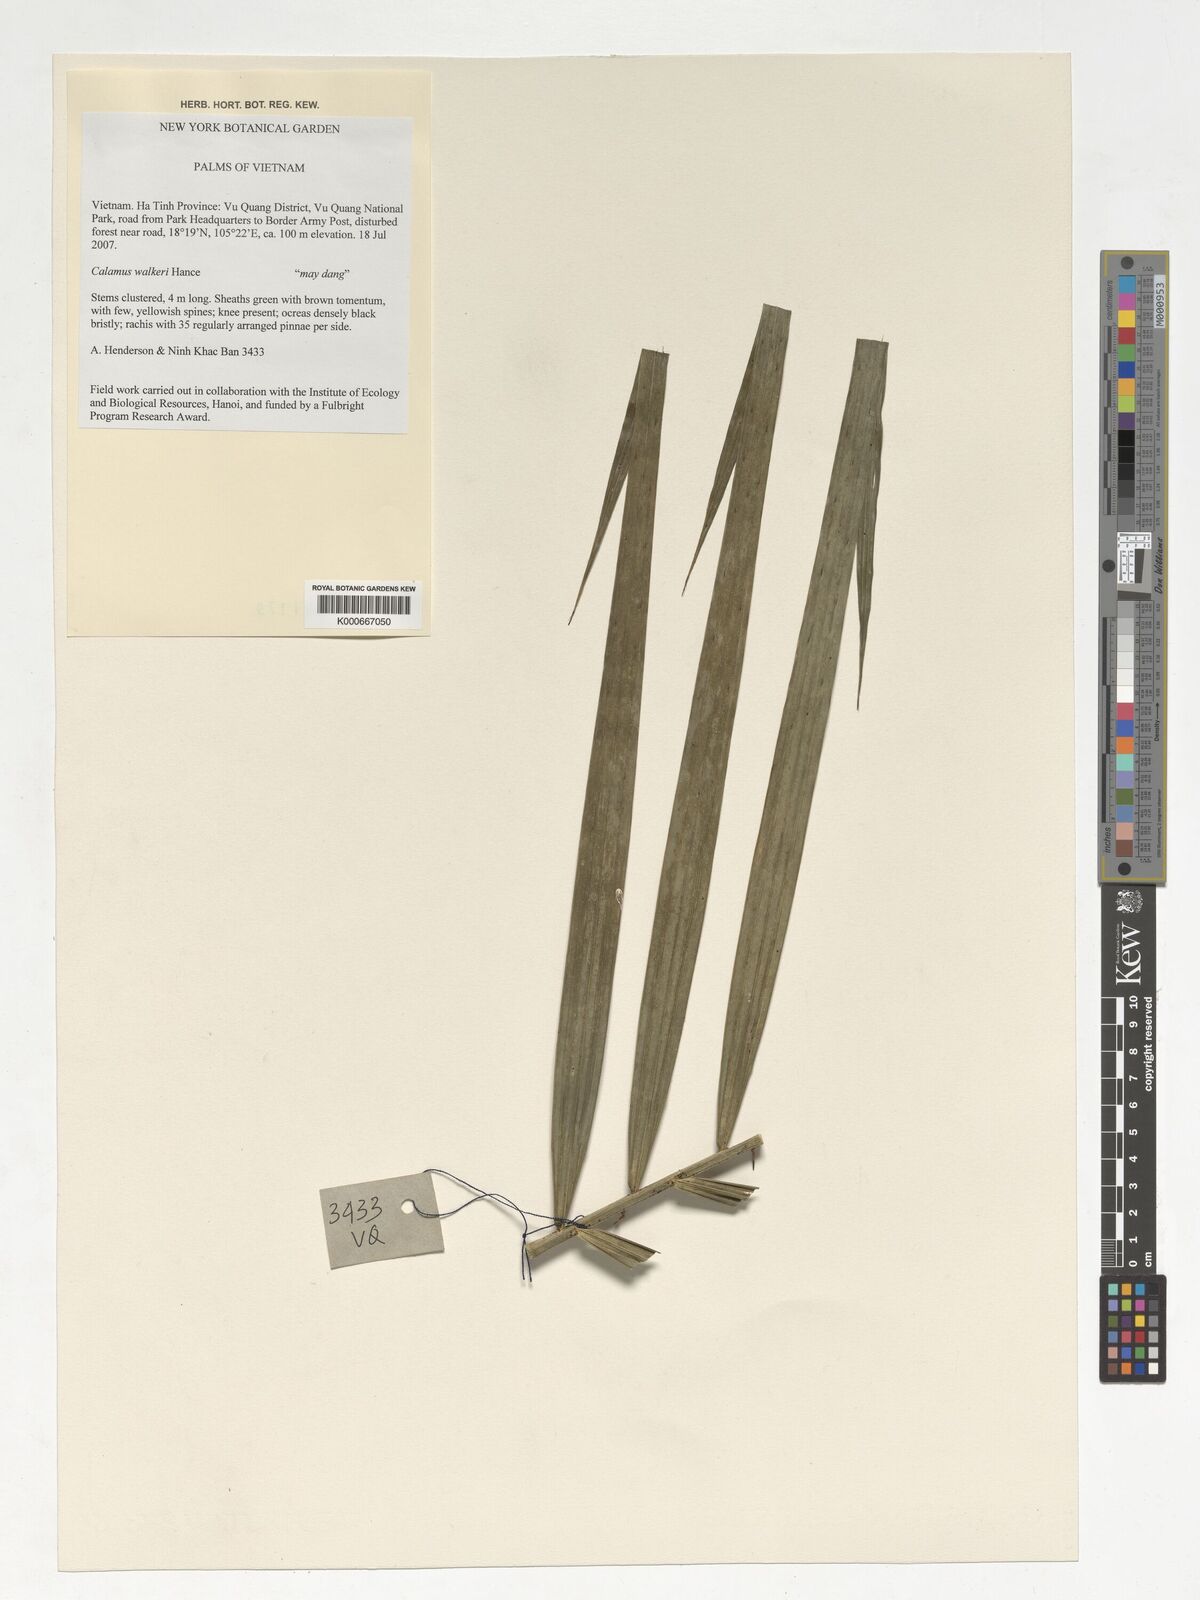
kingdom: Plantae
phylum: Tracheophyta
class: Liliopsida
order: Arecales
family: Arecaceae
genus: Rhapis
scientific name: Rhapis excelsa
